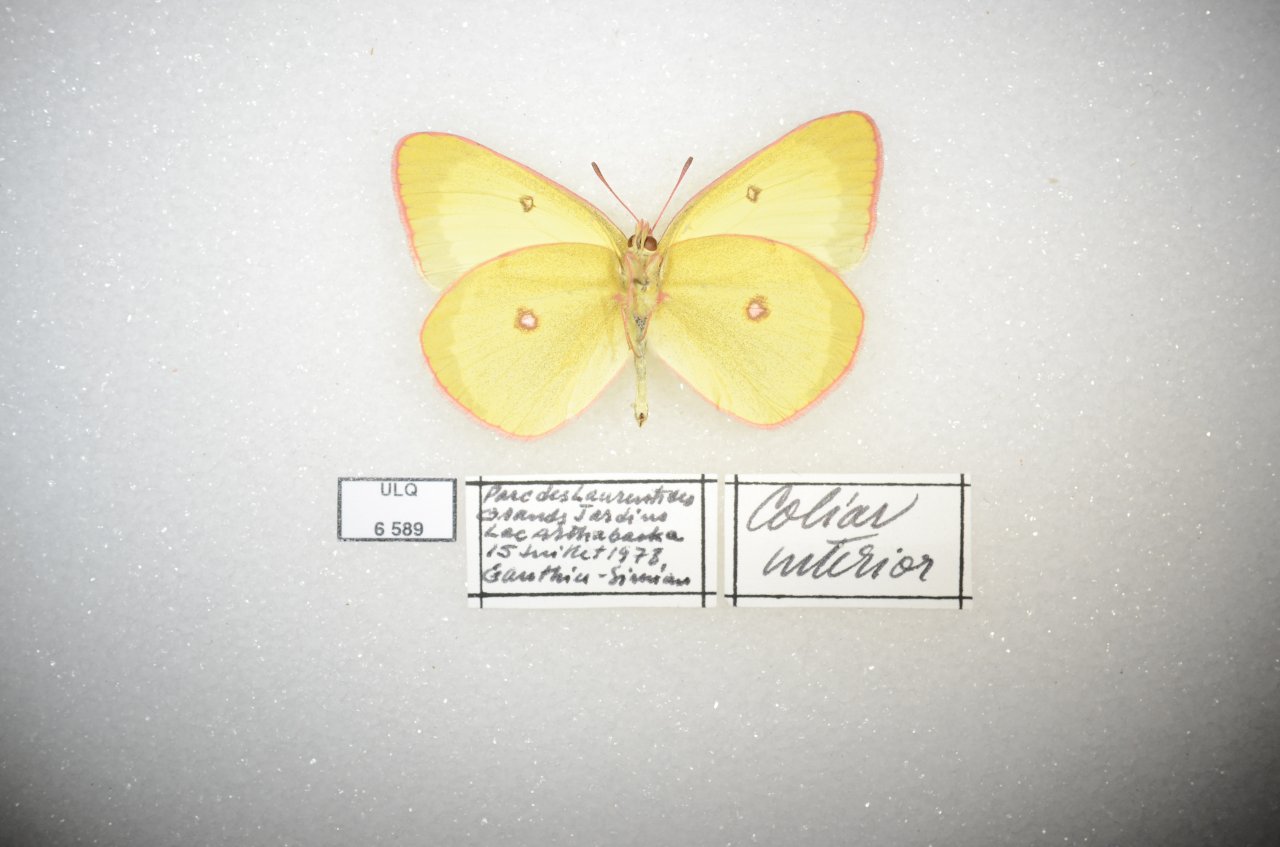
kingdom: Animalia
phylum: Arthropoda
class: Insecta
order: Lepidoptera
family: Pieridae
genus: Colias
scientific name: Colias interior
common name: Pink-edged Sulphur
